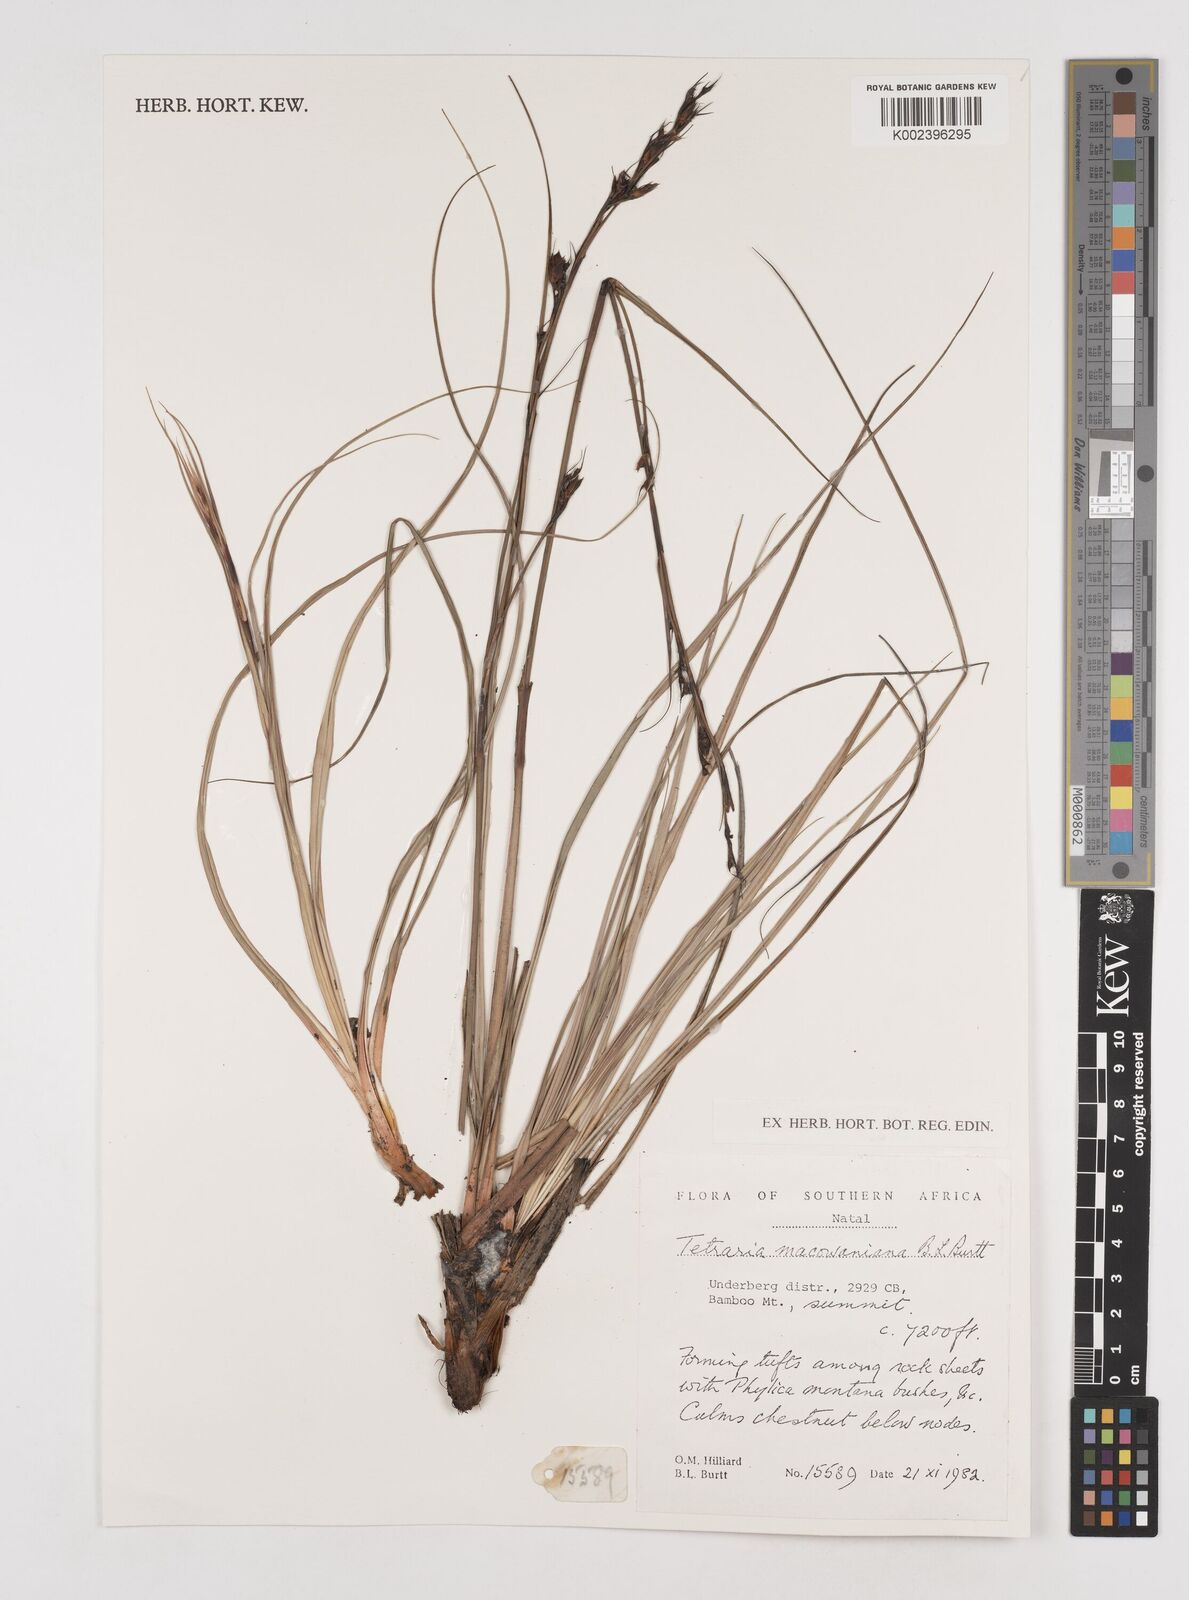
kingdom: Plantae
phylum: Tracheophyta
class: Liliopsida
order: Poales
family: Cyperaceae
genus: Tetraria
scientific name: Tetraria macowaniana
